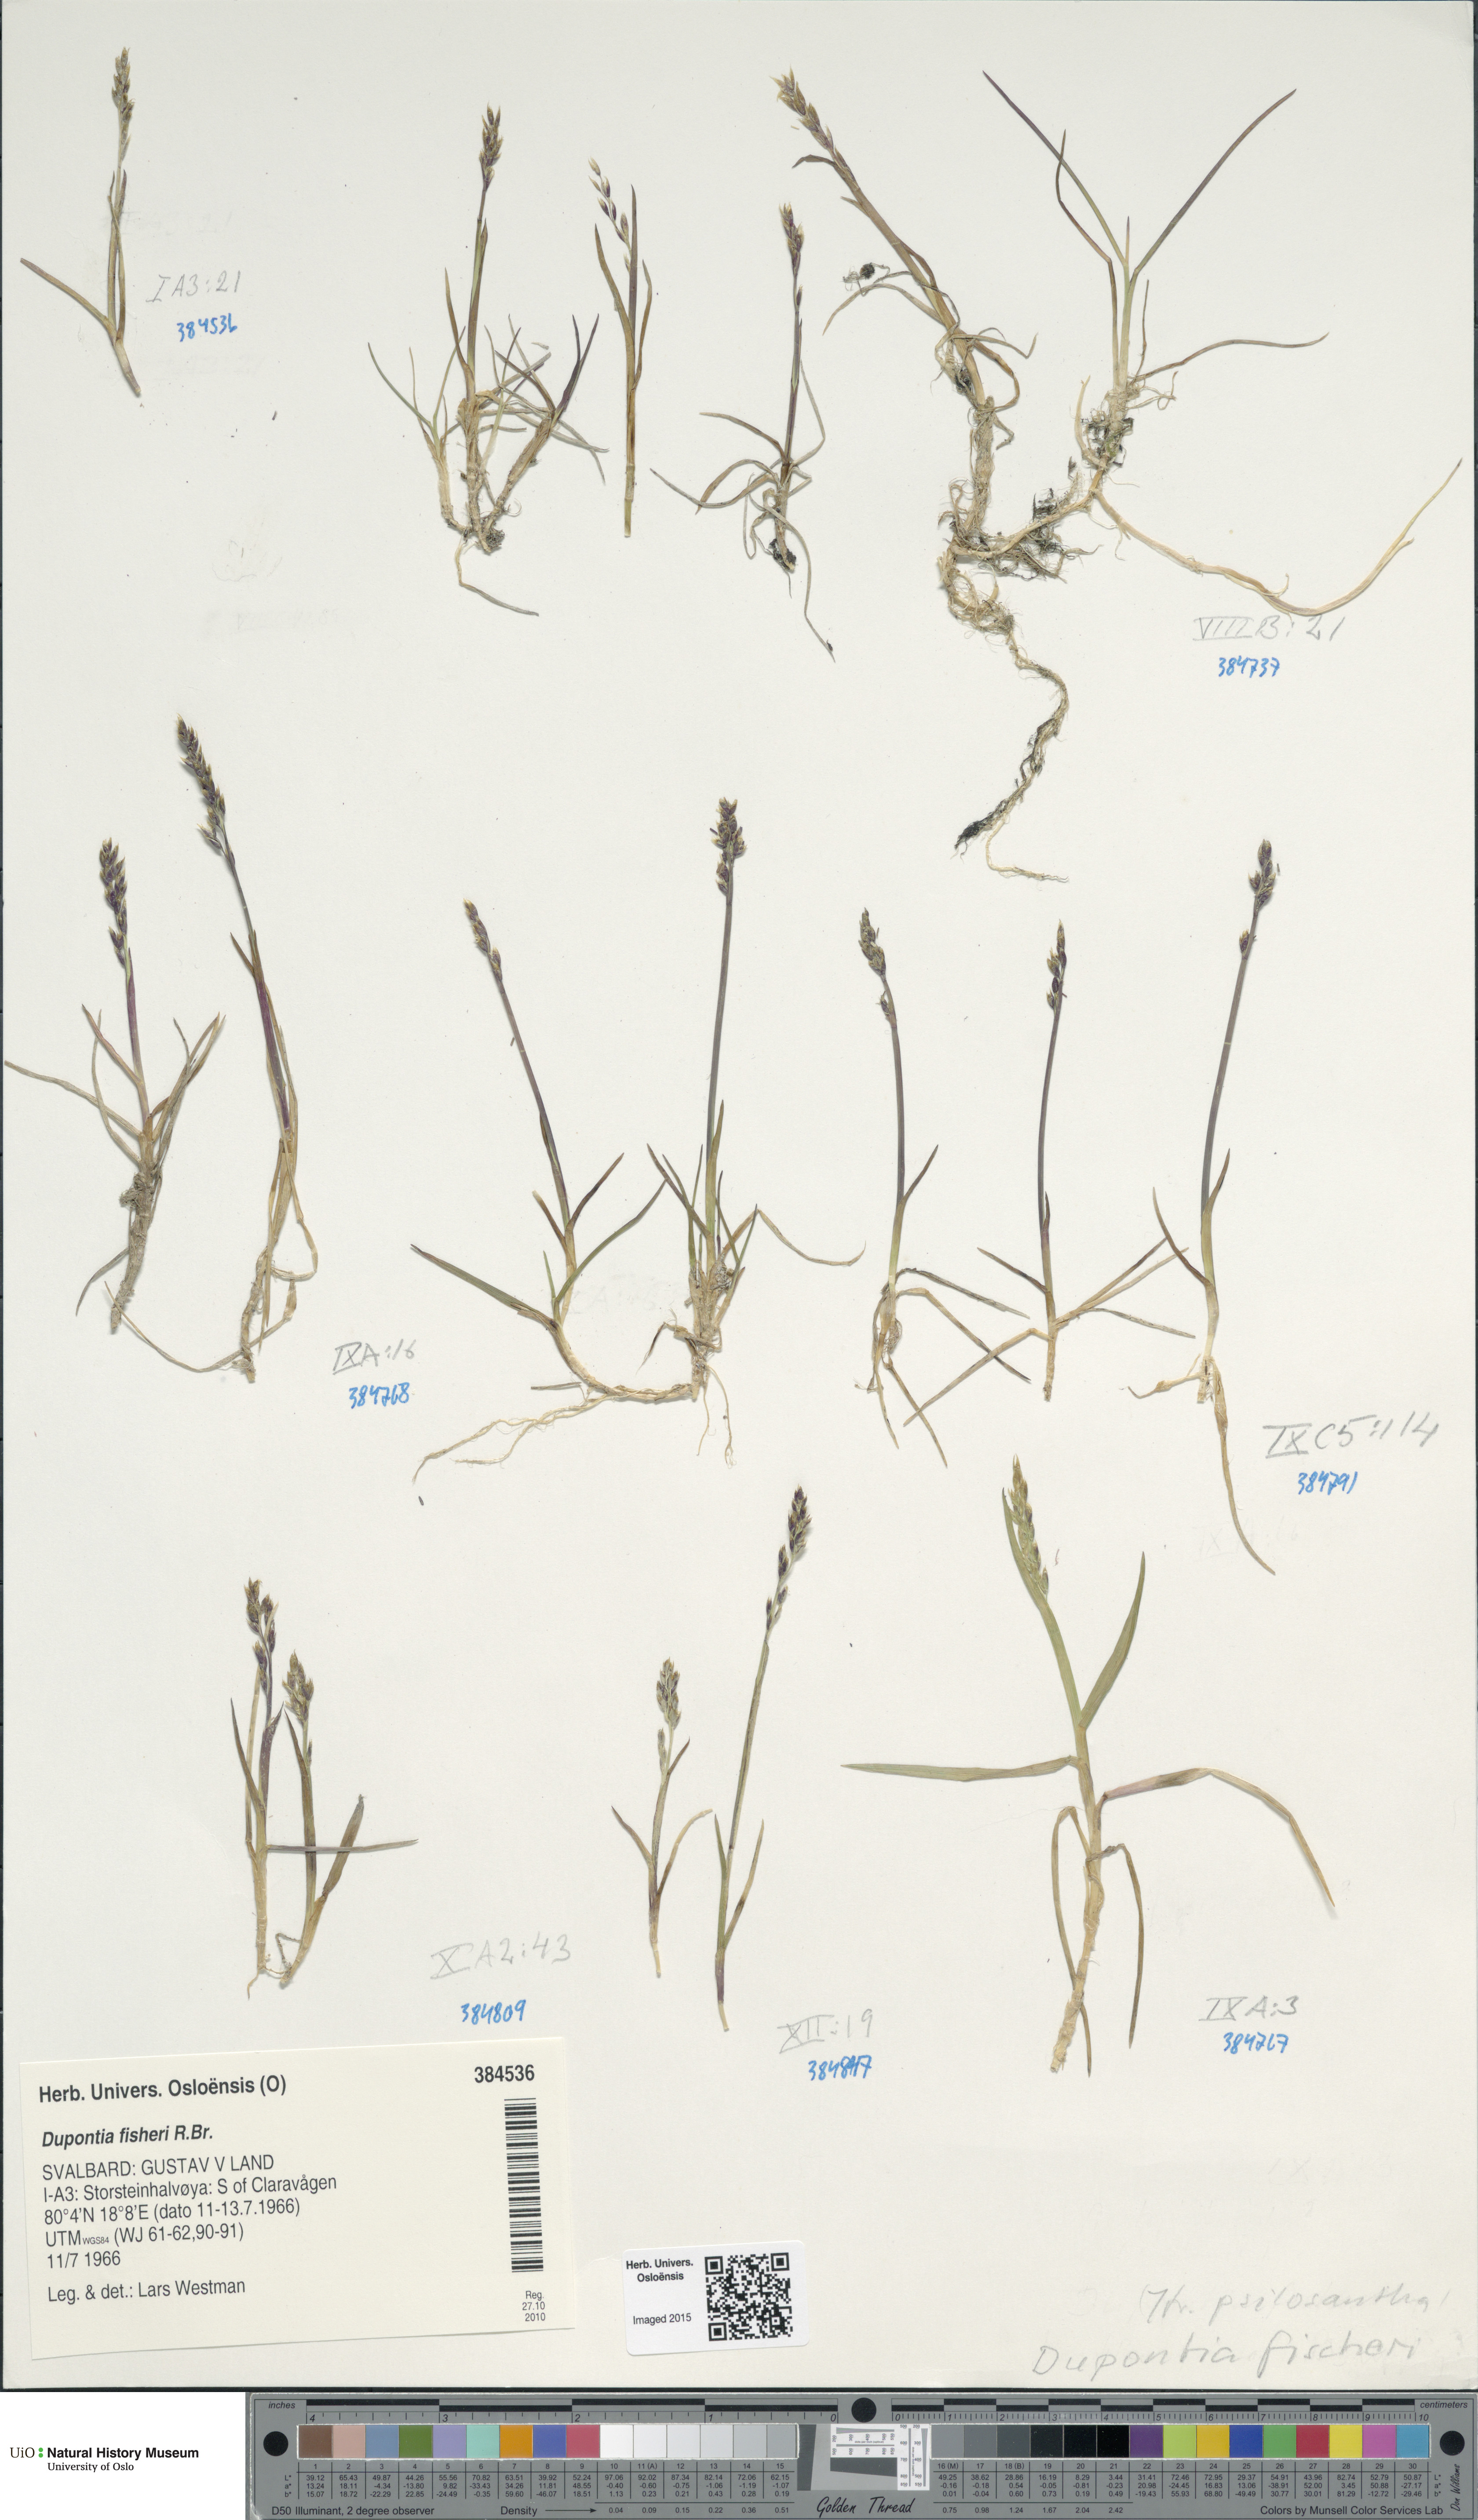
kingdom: Plantae
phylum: Tracheophyta
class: Liliopsida
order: Poales
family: Poaceae
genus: Dupontia
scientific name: Dupontia fisheri
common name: Tundra grass
